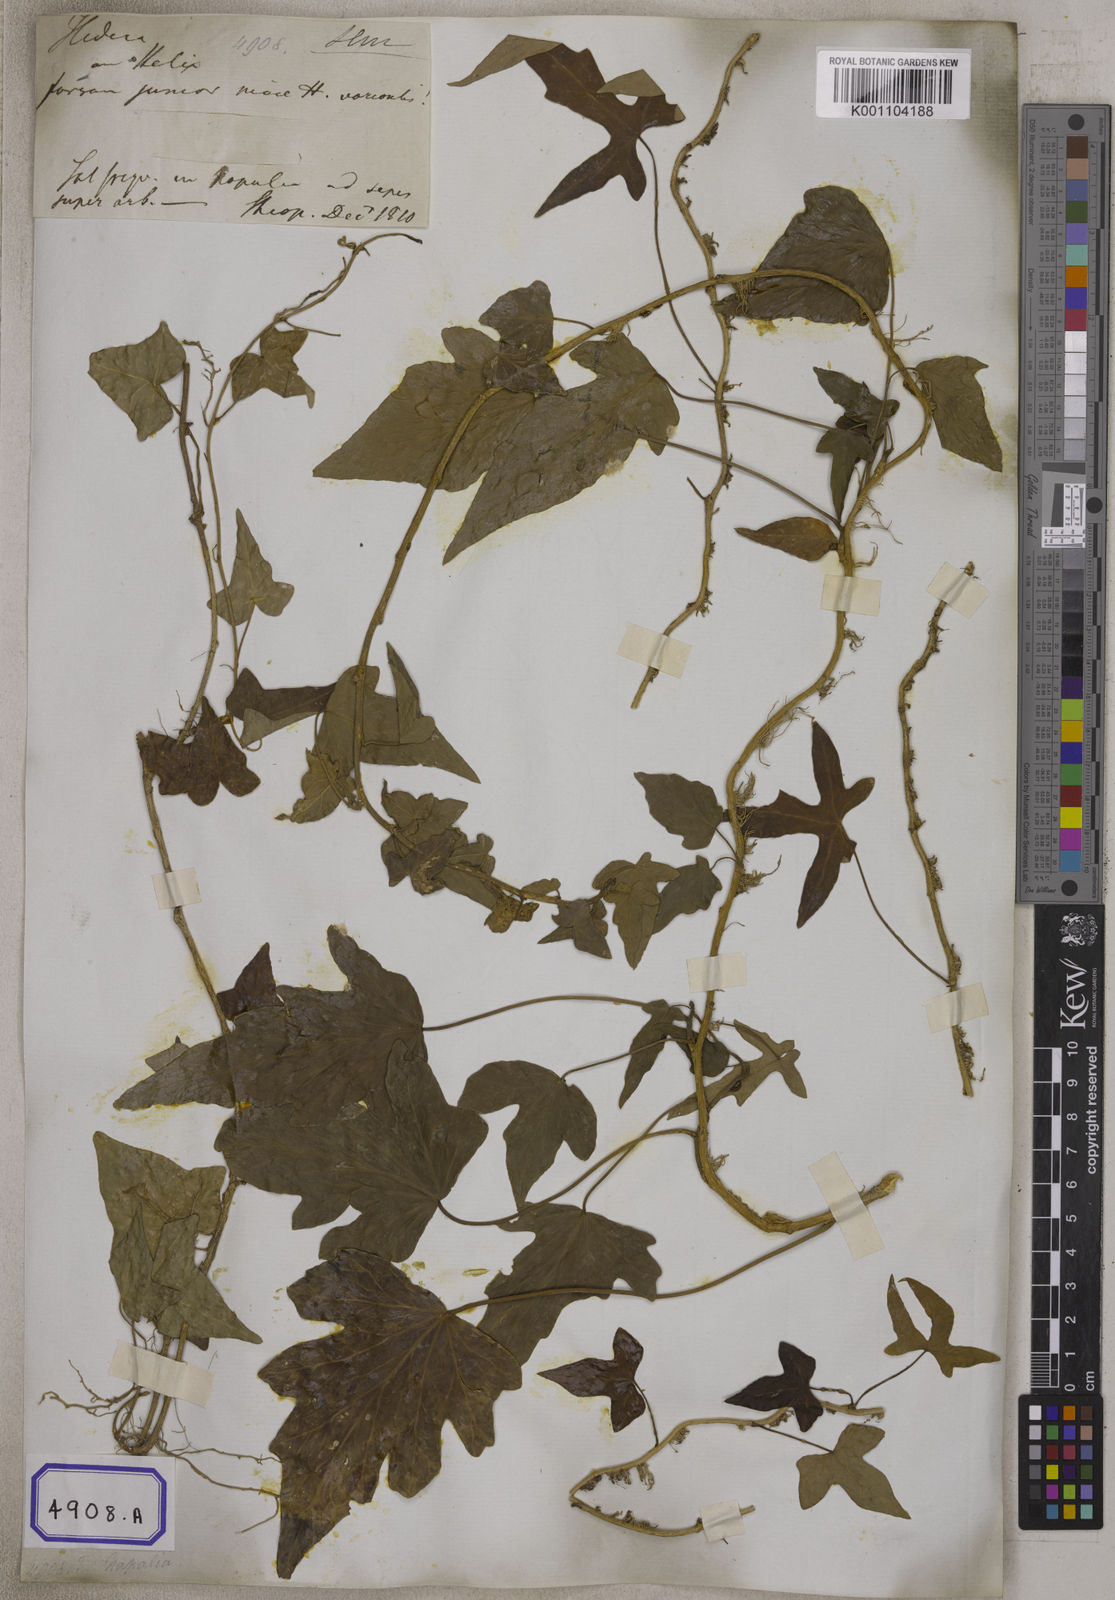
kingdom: Plantae
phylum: Tracheophyta
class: Magnoliopsida
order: Apiales
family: Araliaceae
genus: Hedera
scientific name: Hedera helix
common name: Ivy
